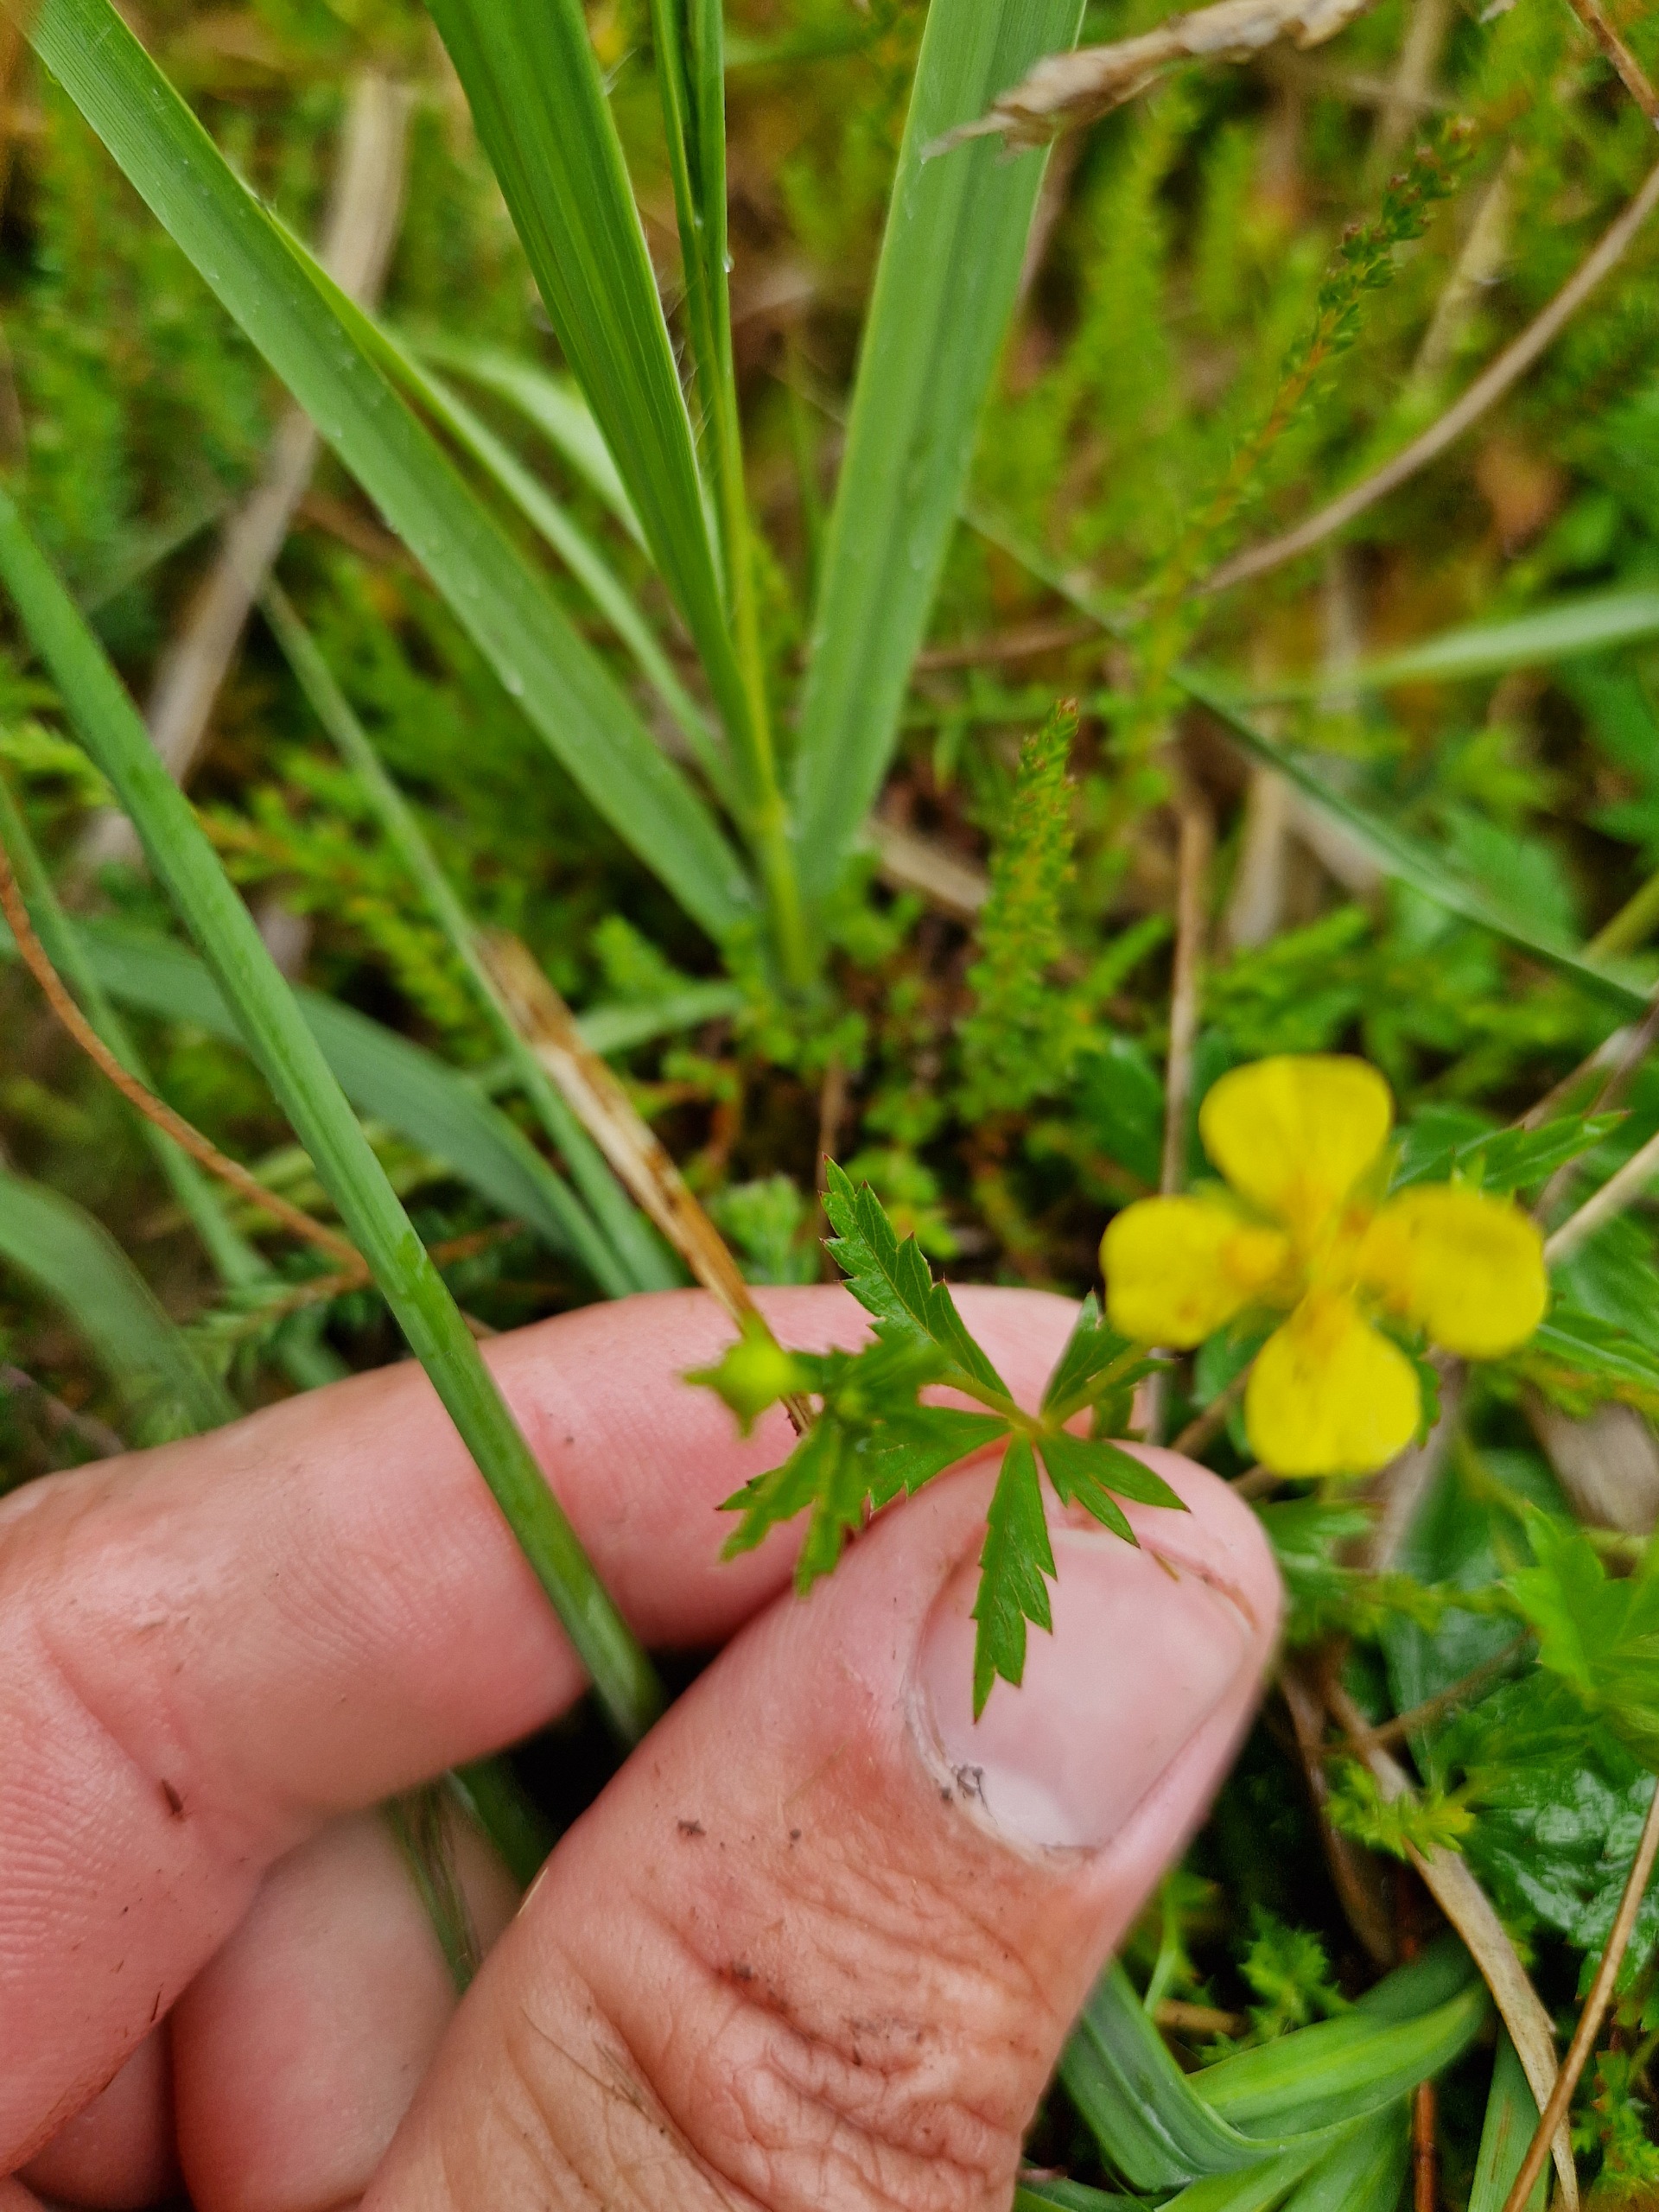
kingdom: Plantae
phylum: Tracheophyta
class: Magnoliopsida
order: Rosales
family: Rosaceae
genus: Potentilla
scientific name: Potentilla erecta
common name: Tormentil
